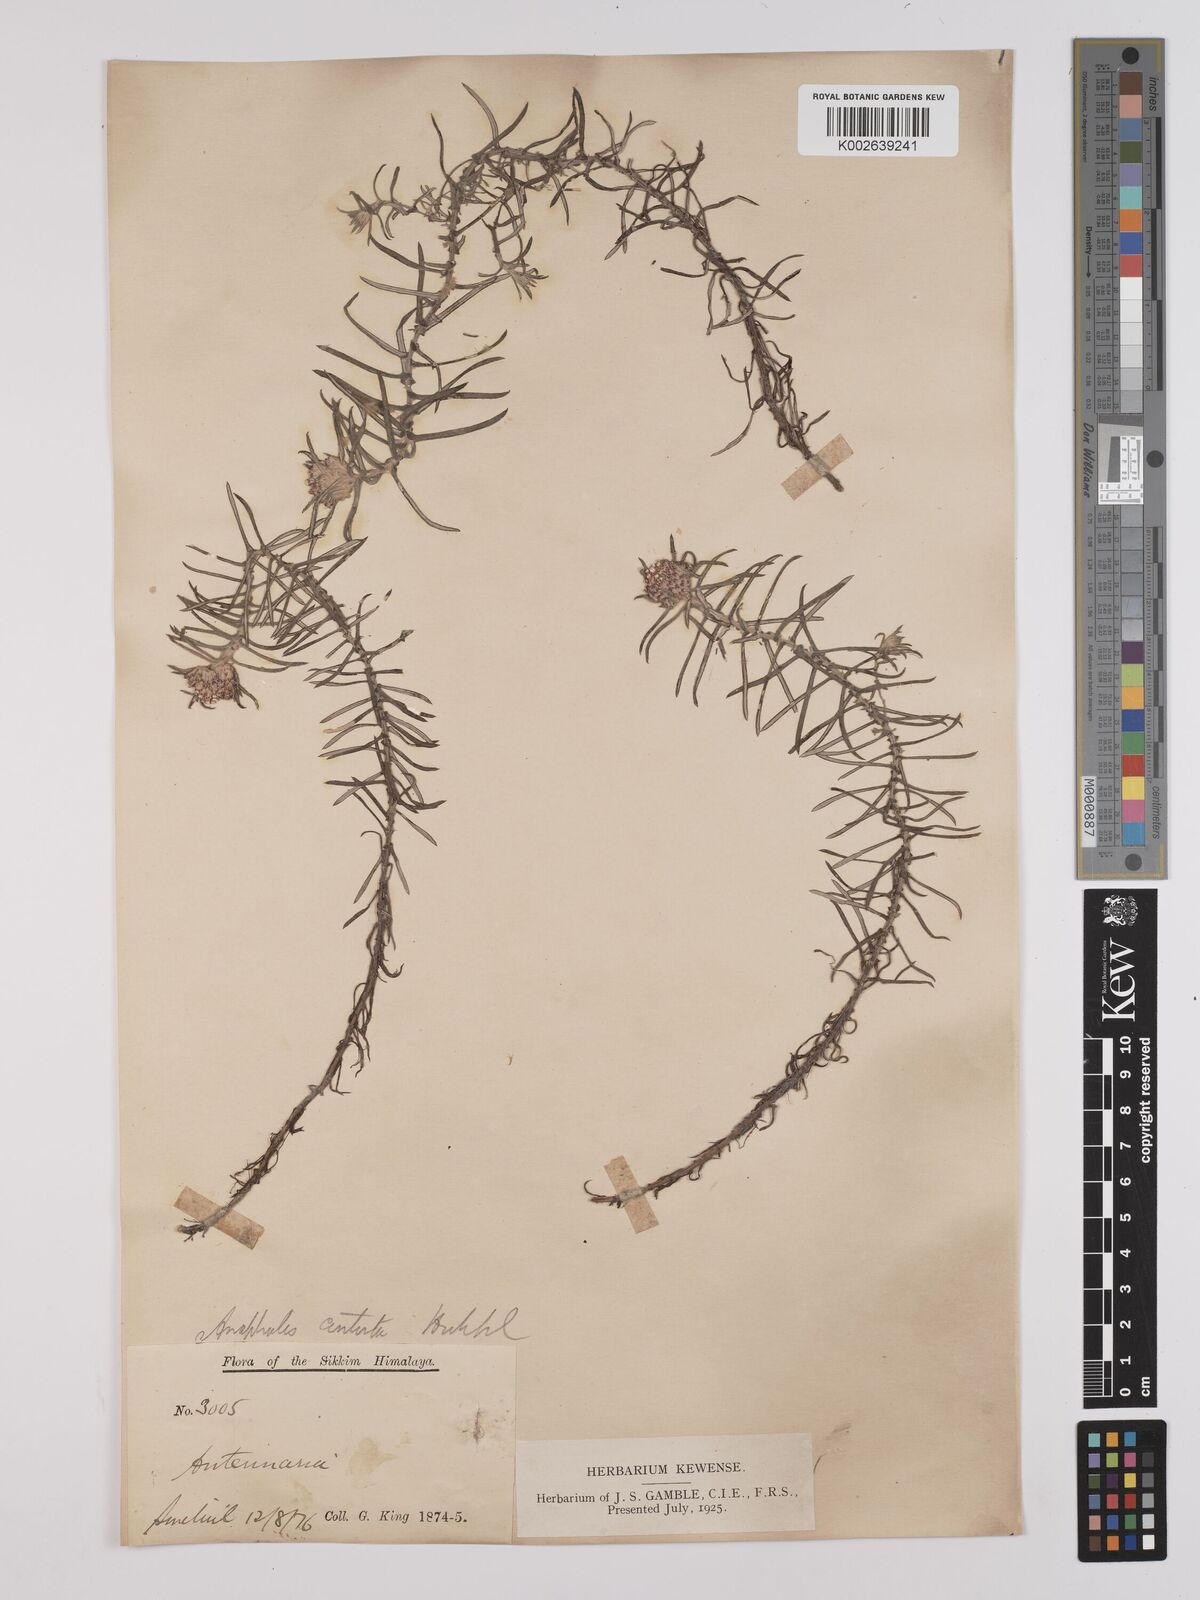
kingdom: Plantae
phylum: Tracheophyta
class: Magnoliopsida
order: Asterales
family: Asteraceae
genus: Anaphalis
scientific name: Anaphalis contorta
